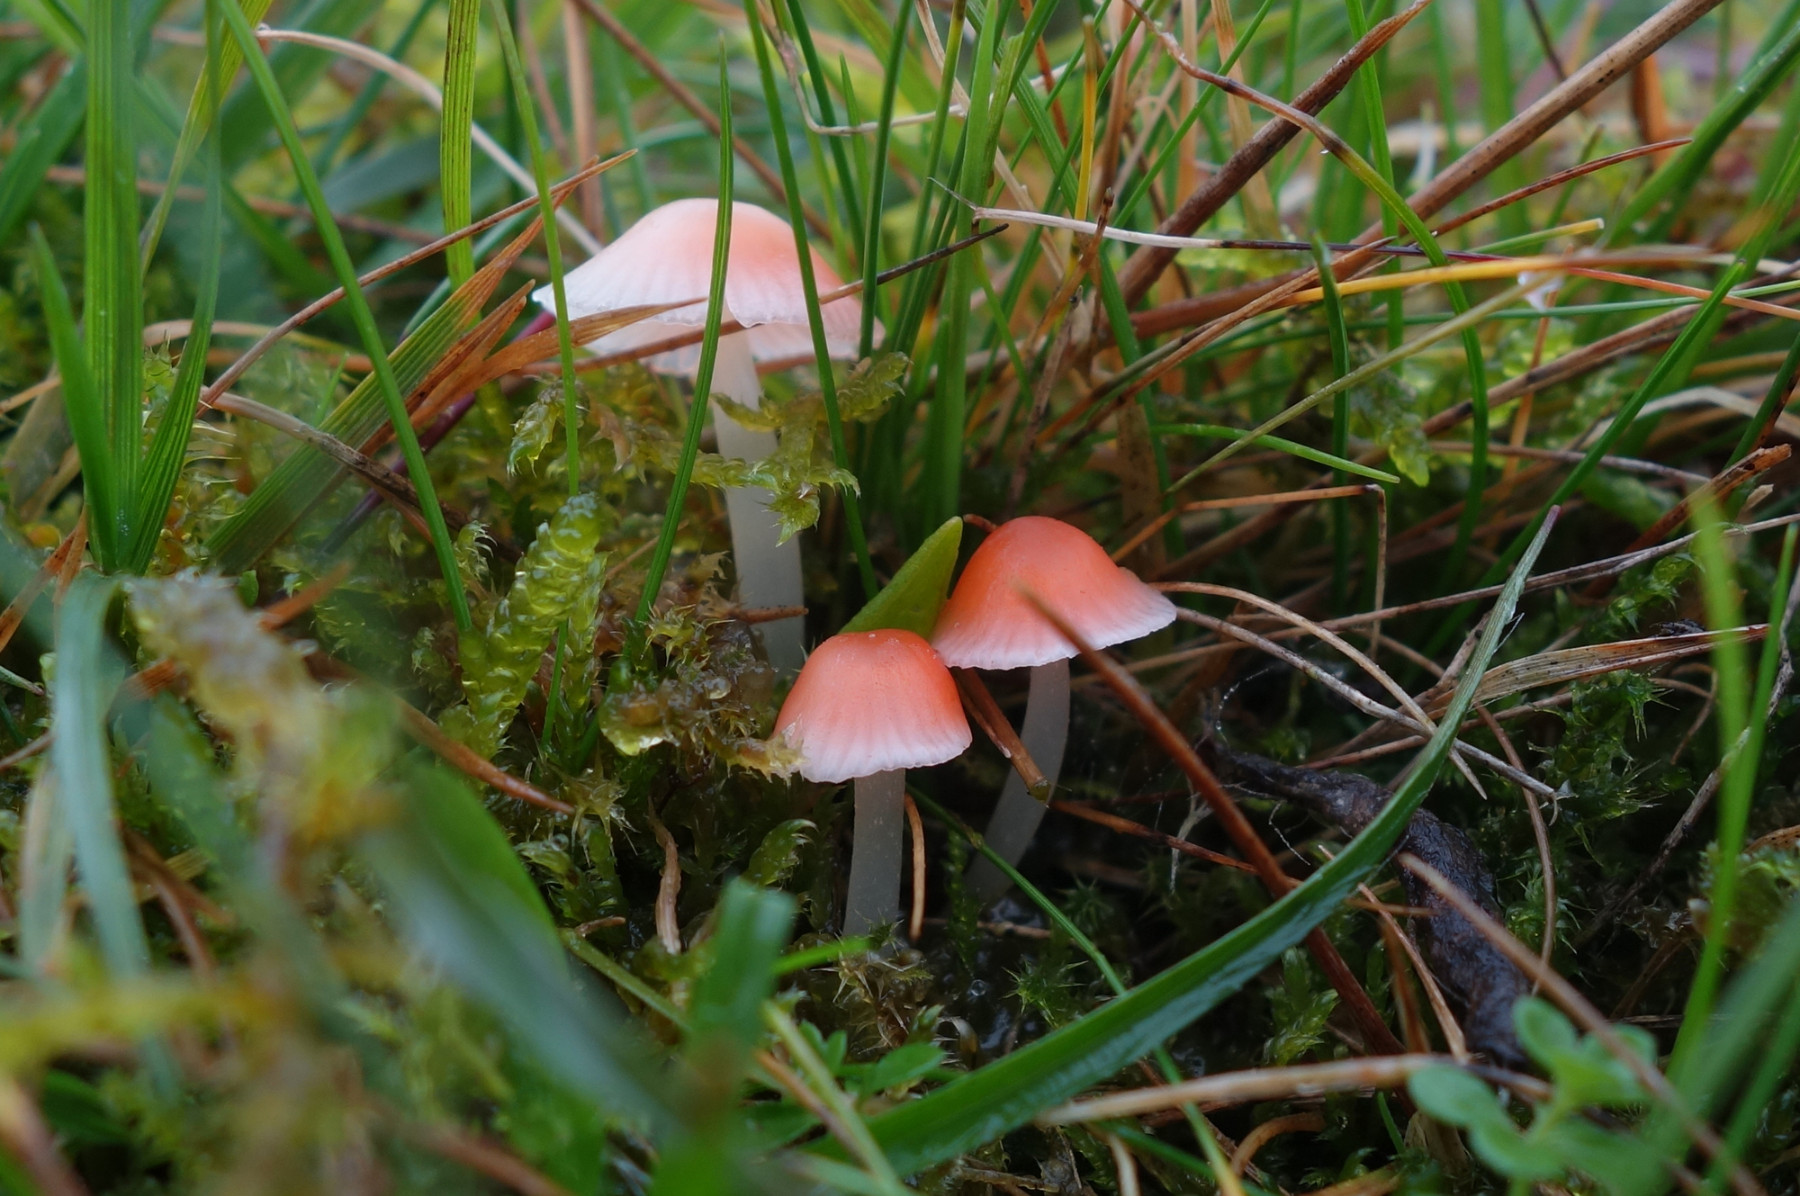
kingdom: Fungi
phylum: Basidiomycota
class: Agaricomycetes
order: Agaricales
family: Mycenaceae
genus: Atheniella
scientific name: Atheniella adonis
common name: rønnerød huesvamp
